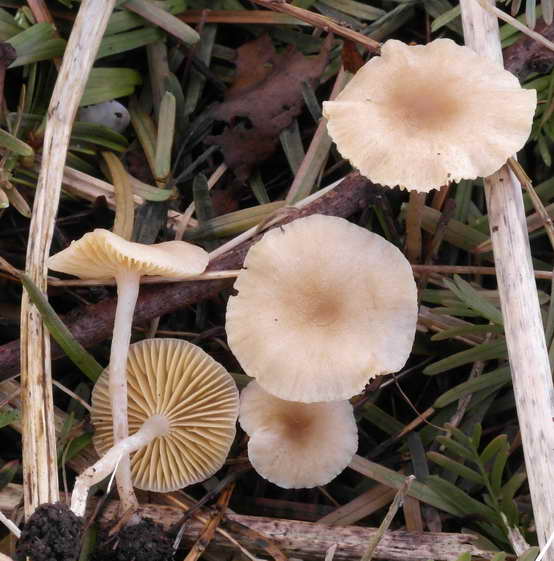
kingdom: Fungi
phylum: Basidiomycota
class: Agaricomycetes
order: Agaricales
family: Tubariaceae
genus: Tubaria
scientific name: Tubaria dispersa
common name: tjørne-fnughat
